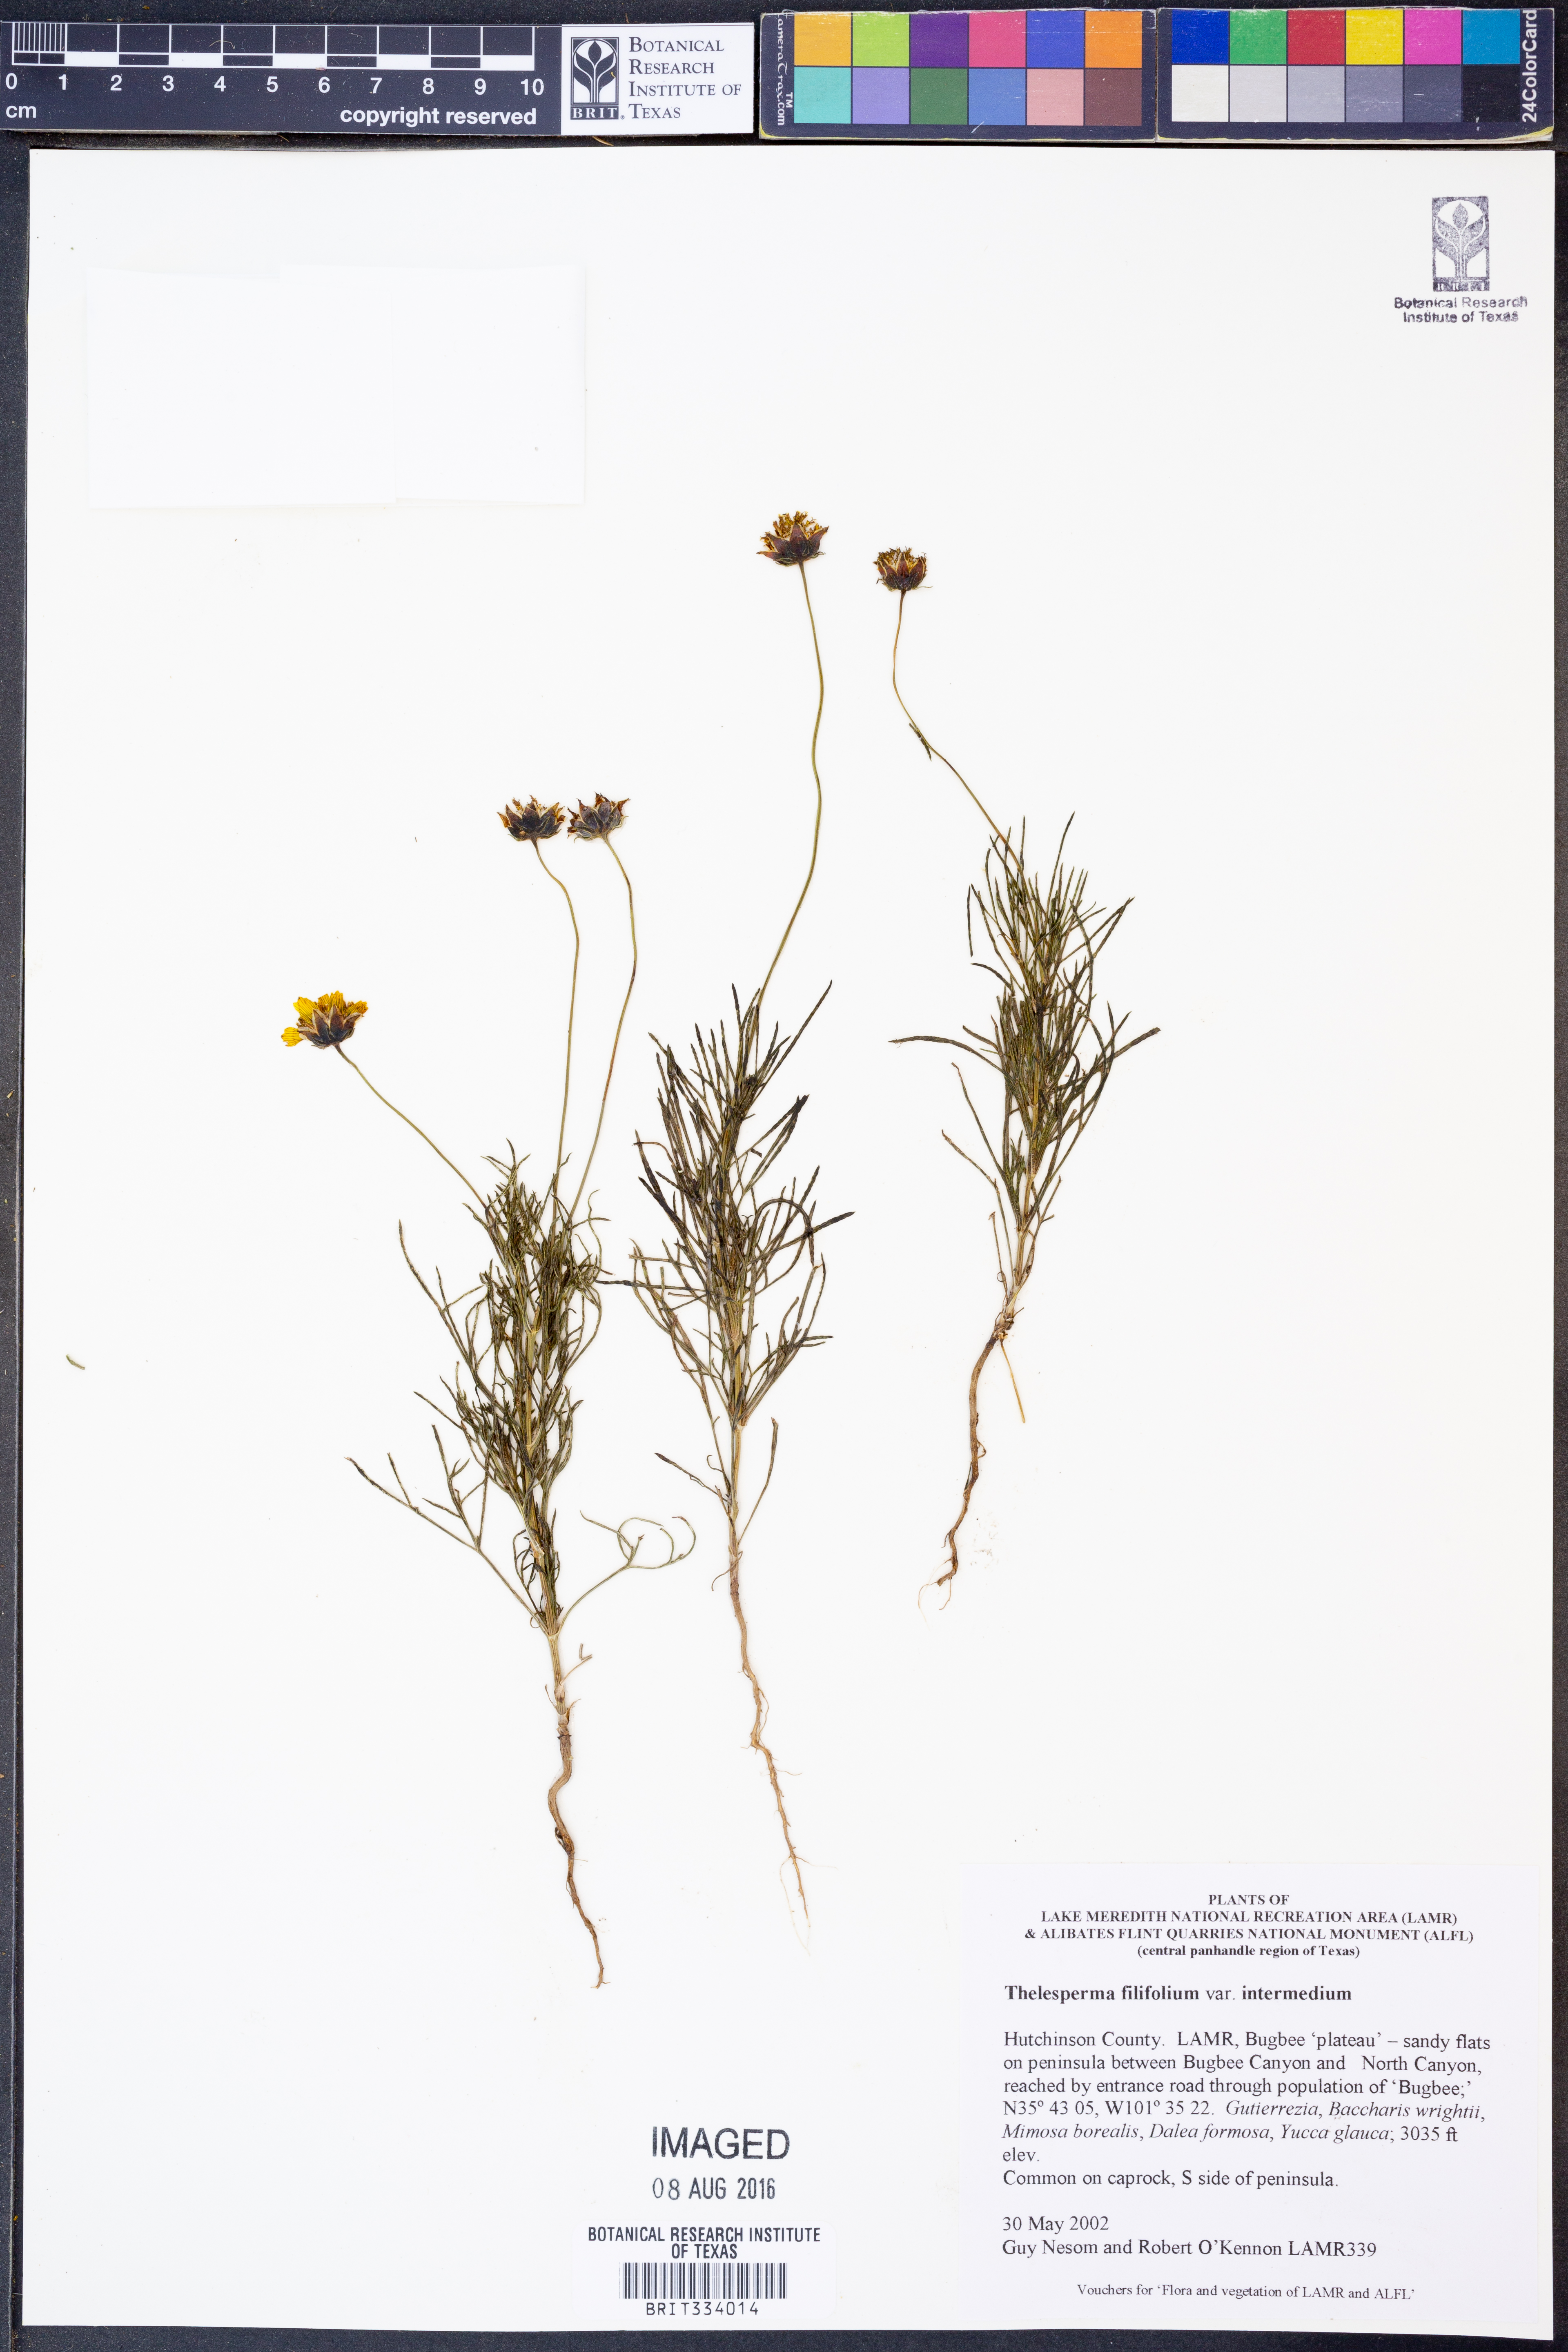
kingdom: Plantae
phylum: Tracheophyta
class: Magnoliopsida
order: Asterales
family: Asteraceae
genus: Thelesperma
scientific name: Thelesperma filifolium
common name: Stiff greenthread
